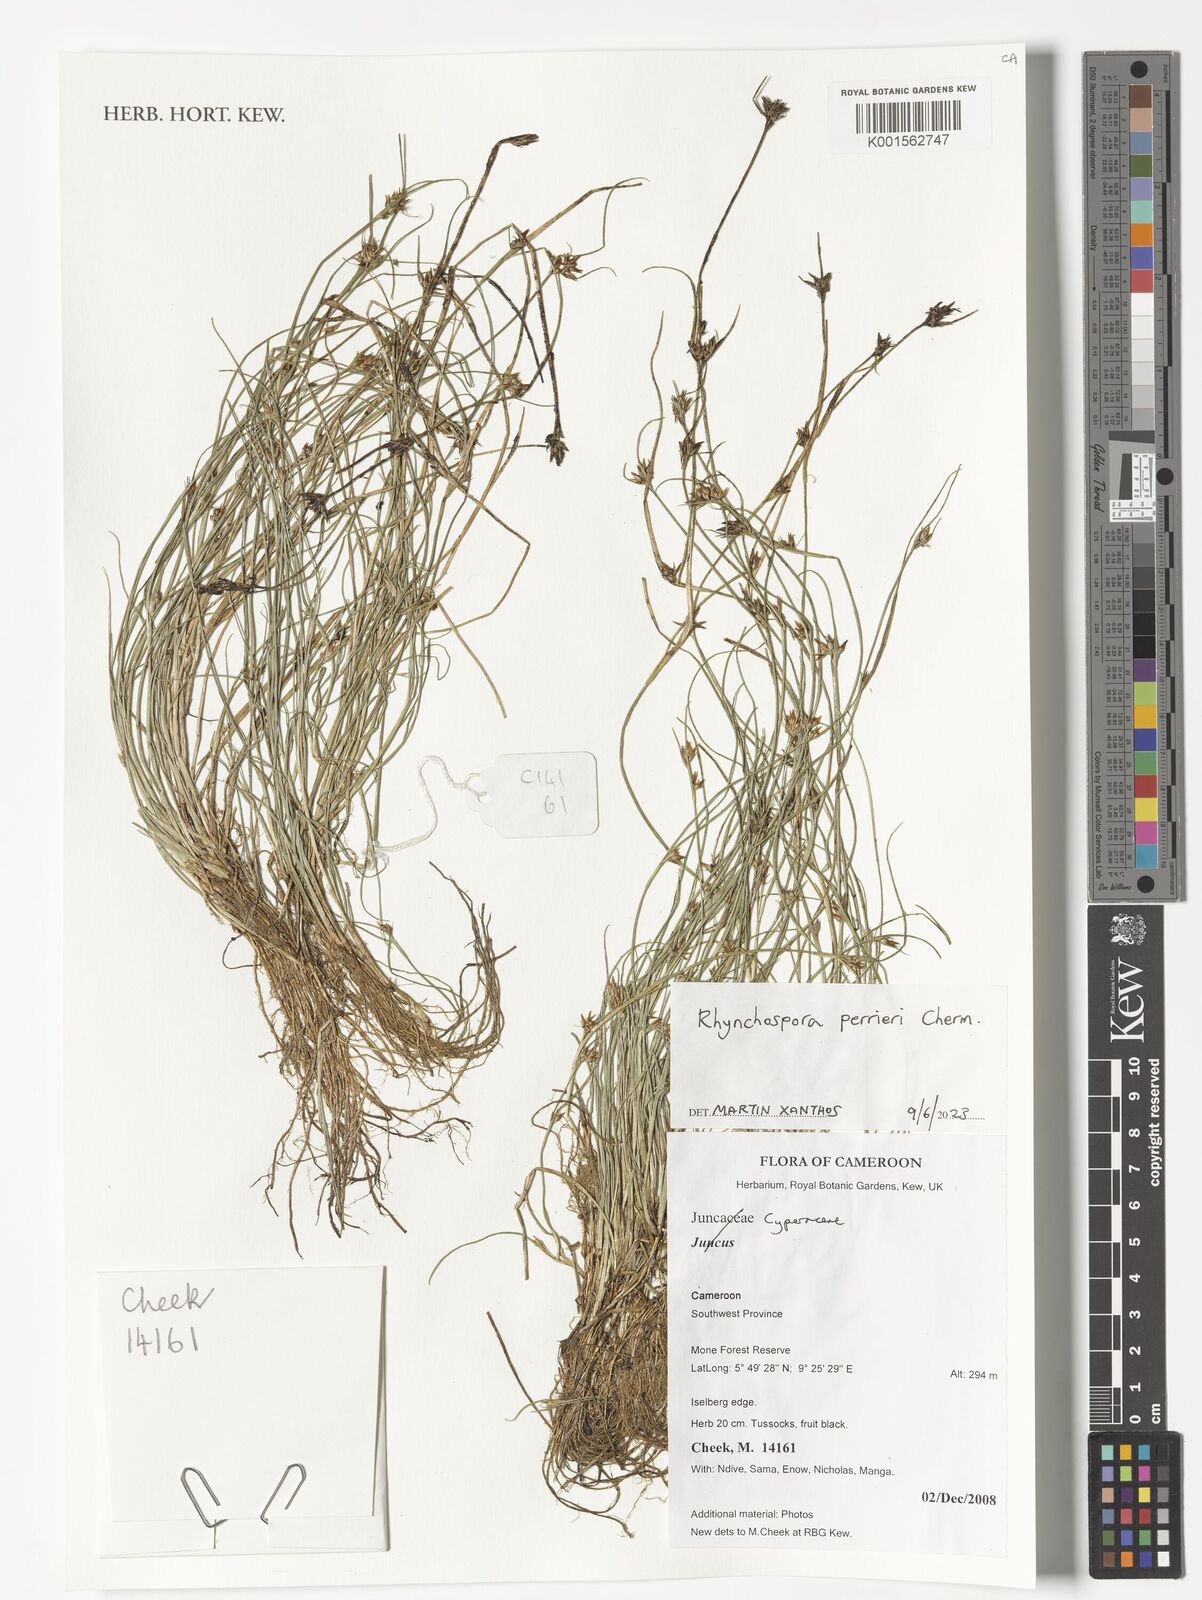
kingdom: Plantae
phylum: Tracheophyta
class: Liliopsida
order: Poales
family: Cyperaceae
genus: Rhynchospora
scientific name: Rhynchospora perrieri
